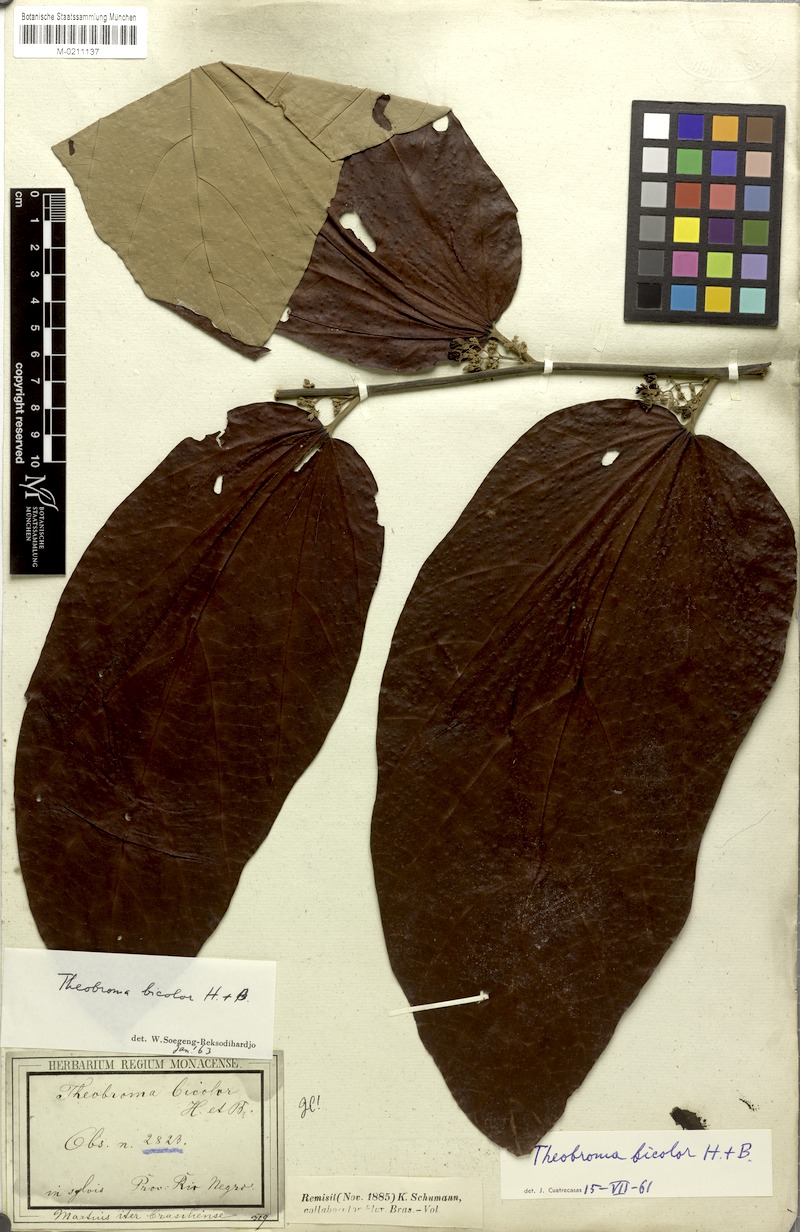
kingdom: Plantae
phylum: Tracheophyta
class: Magnoliopsida
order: Malvales
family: Malvaceae
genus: Theobroma
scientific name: Theobroma bicolor
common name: Macambo tree
